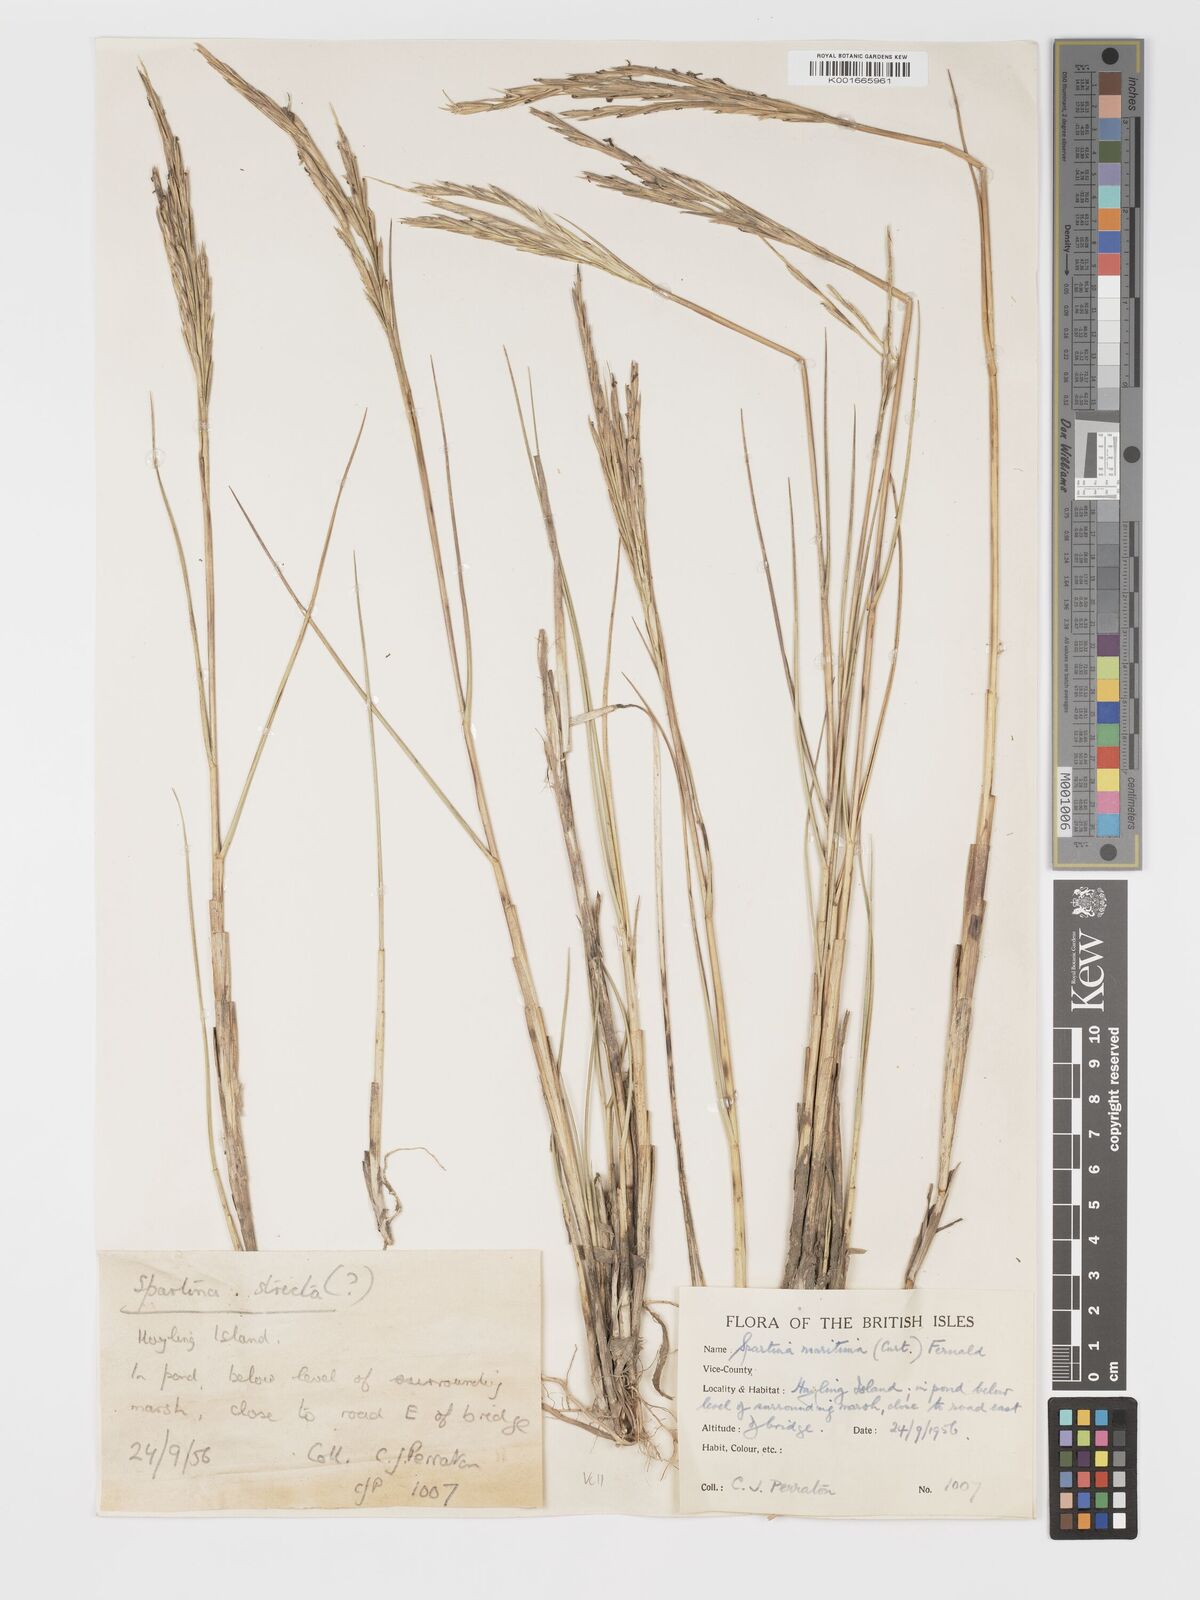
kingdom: Plantae
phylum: Tracheophyta
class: Liliopsida
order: Poales
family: Poaceae
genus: Sporobolus
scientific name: Sporobolus maritimus
